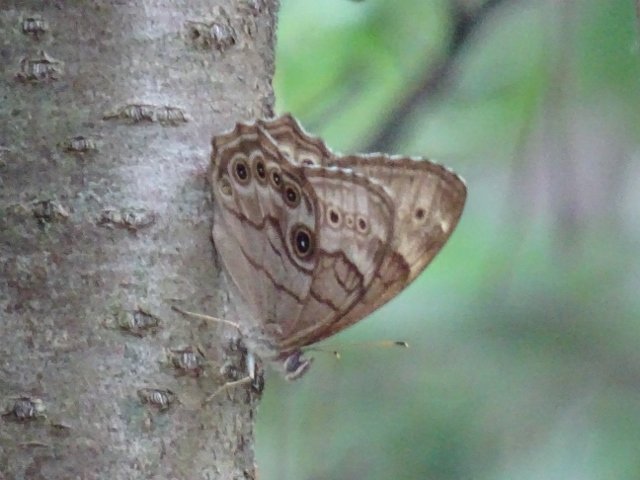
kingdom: Animalia
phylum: Arthropoda
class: Insecta
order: Lepidoptera
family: Nymphalidae
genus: Lethe
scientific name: Lethe anthedon
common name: Northern Pearly-Eye
